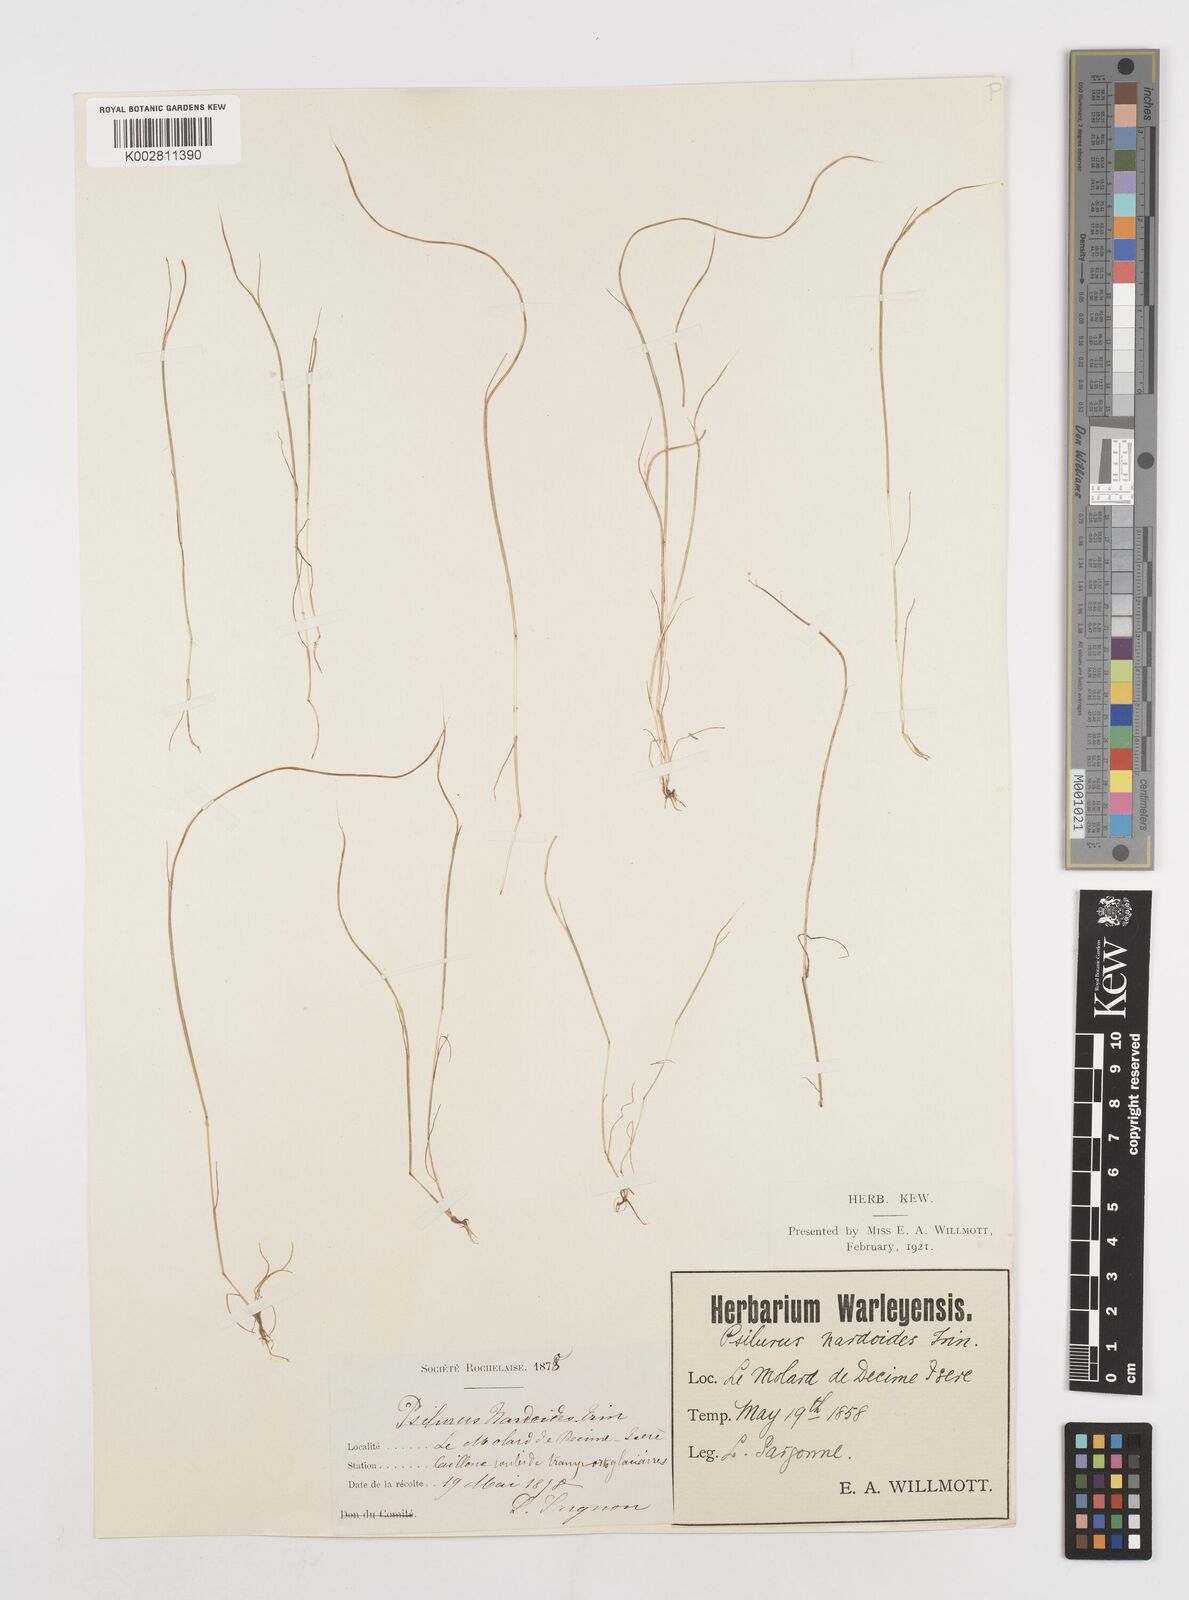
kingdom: Plantae
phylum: Tracheophyta
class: Liliopsida
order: Poales
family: Poaceae
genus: Festuca
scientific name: Festuca incurva
